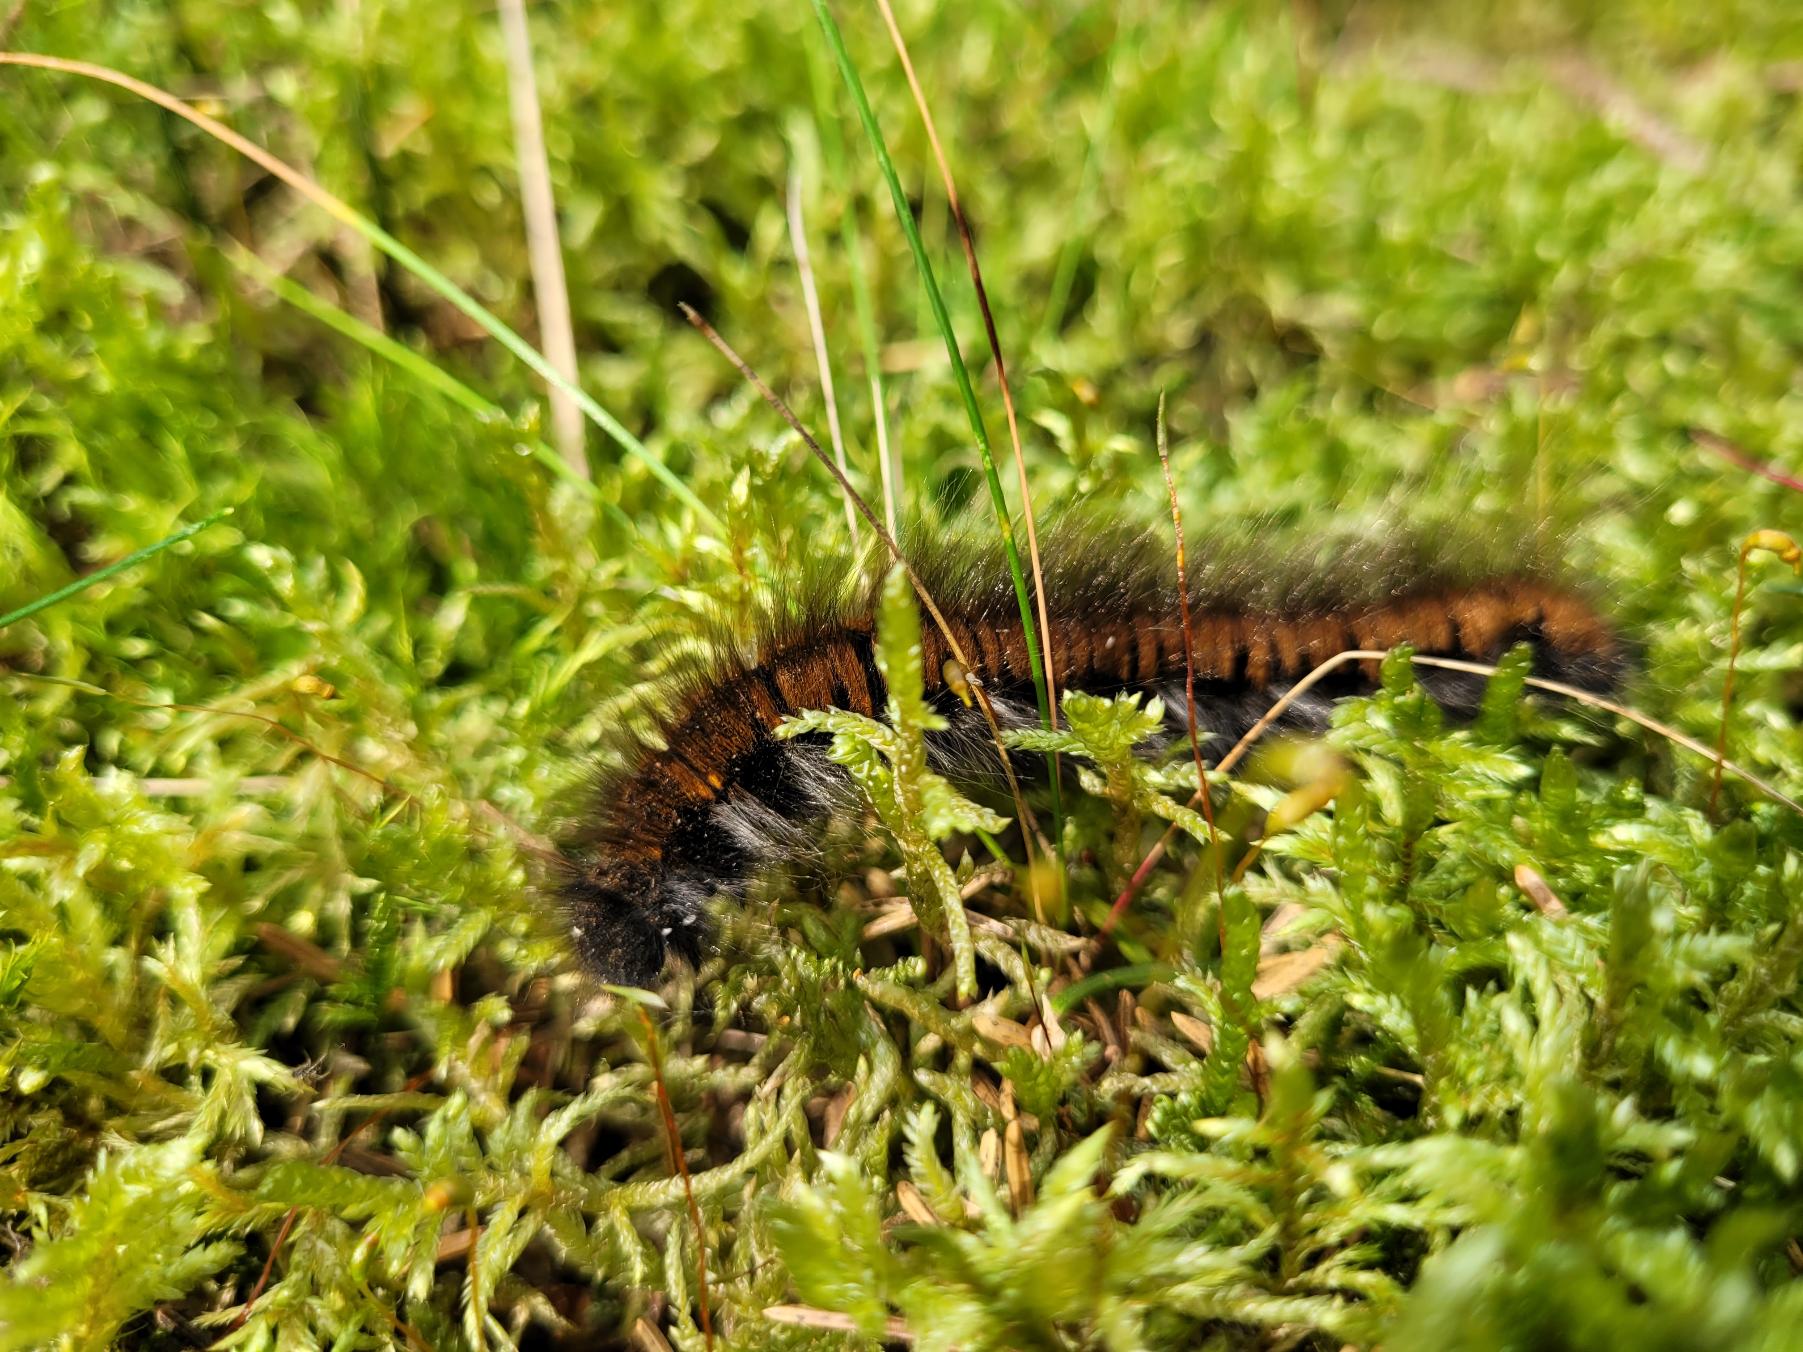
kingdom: Animalia
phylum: Arthropoda
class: Insecta
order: Lepidoptera
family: Lasiocampidae
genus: Macrothylacia
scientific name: Macrothylacia rubi
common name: Brombærspinder
